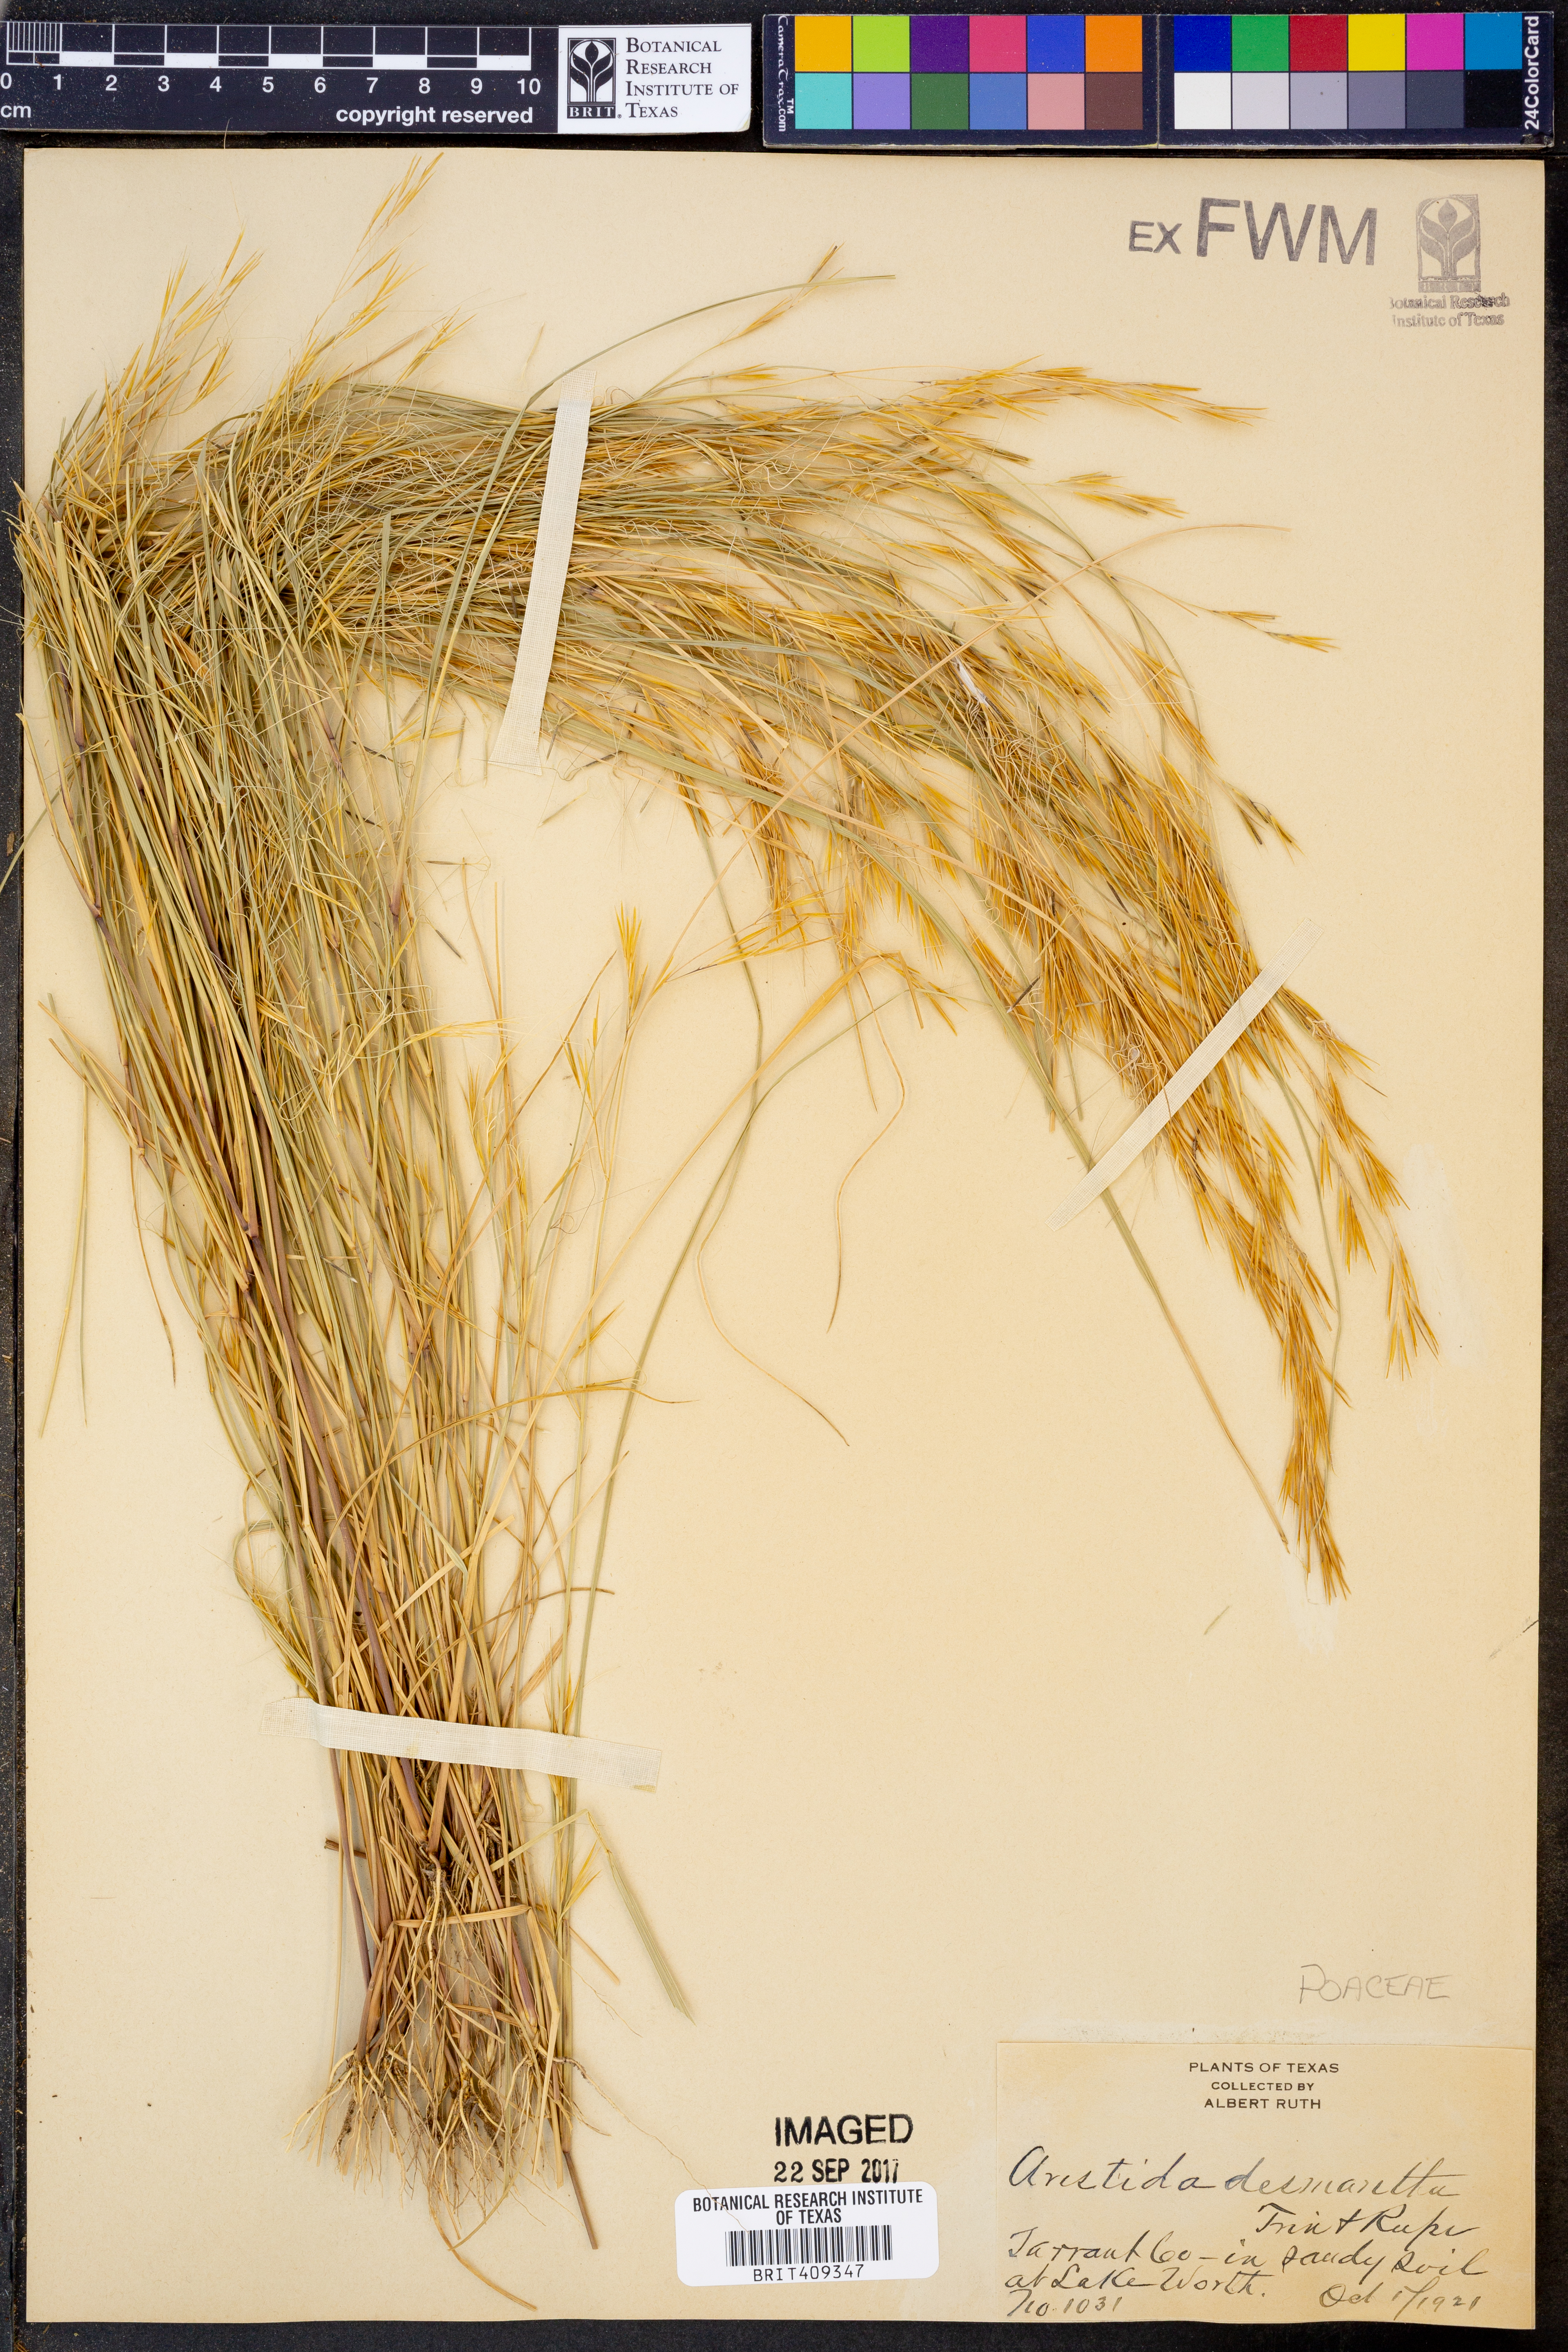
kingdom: Plantae
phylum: Tracheophyta
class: Liliopsida
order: Poales
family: Poaceae
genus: Aristida
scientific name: Aristida desmantha
